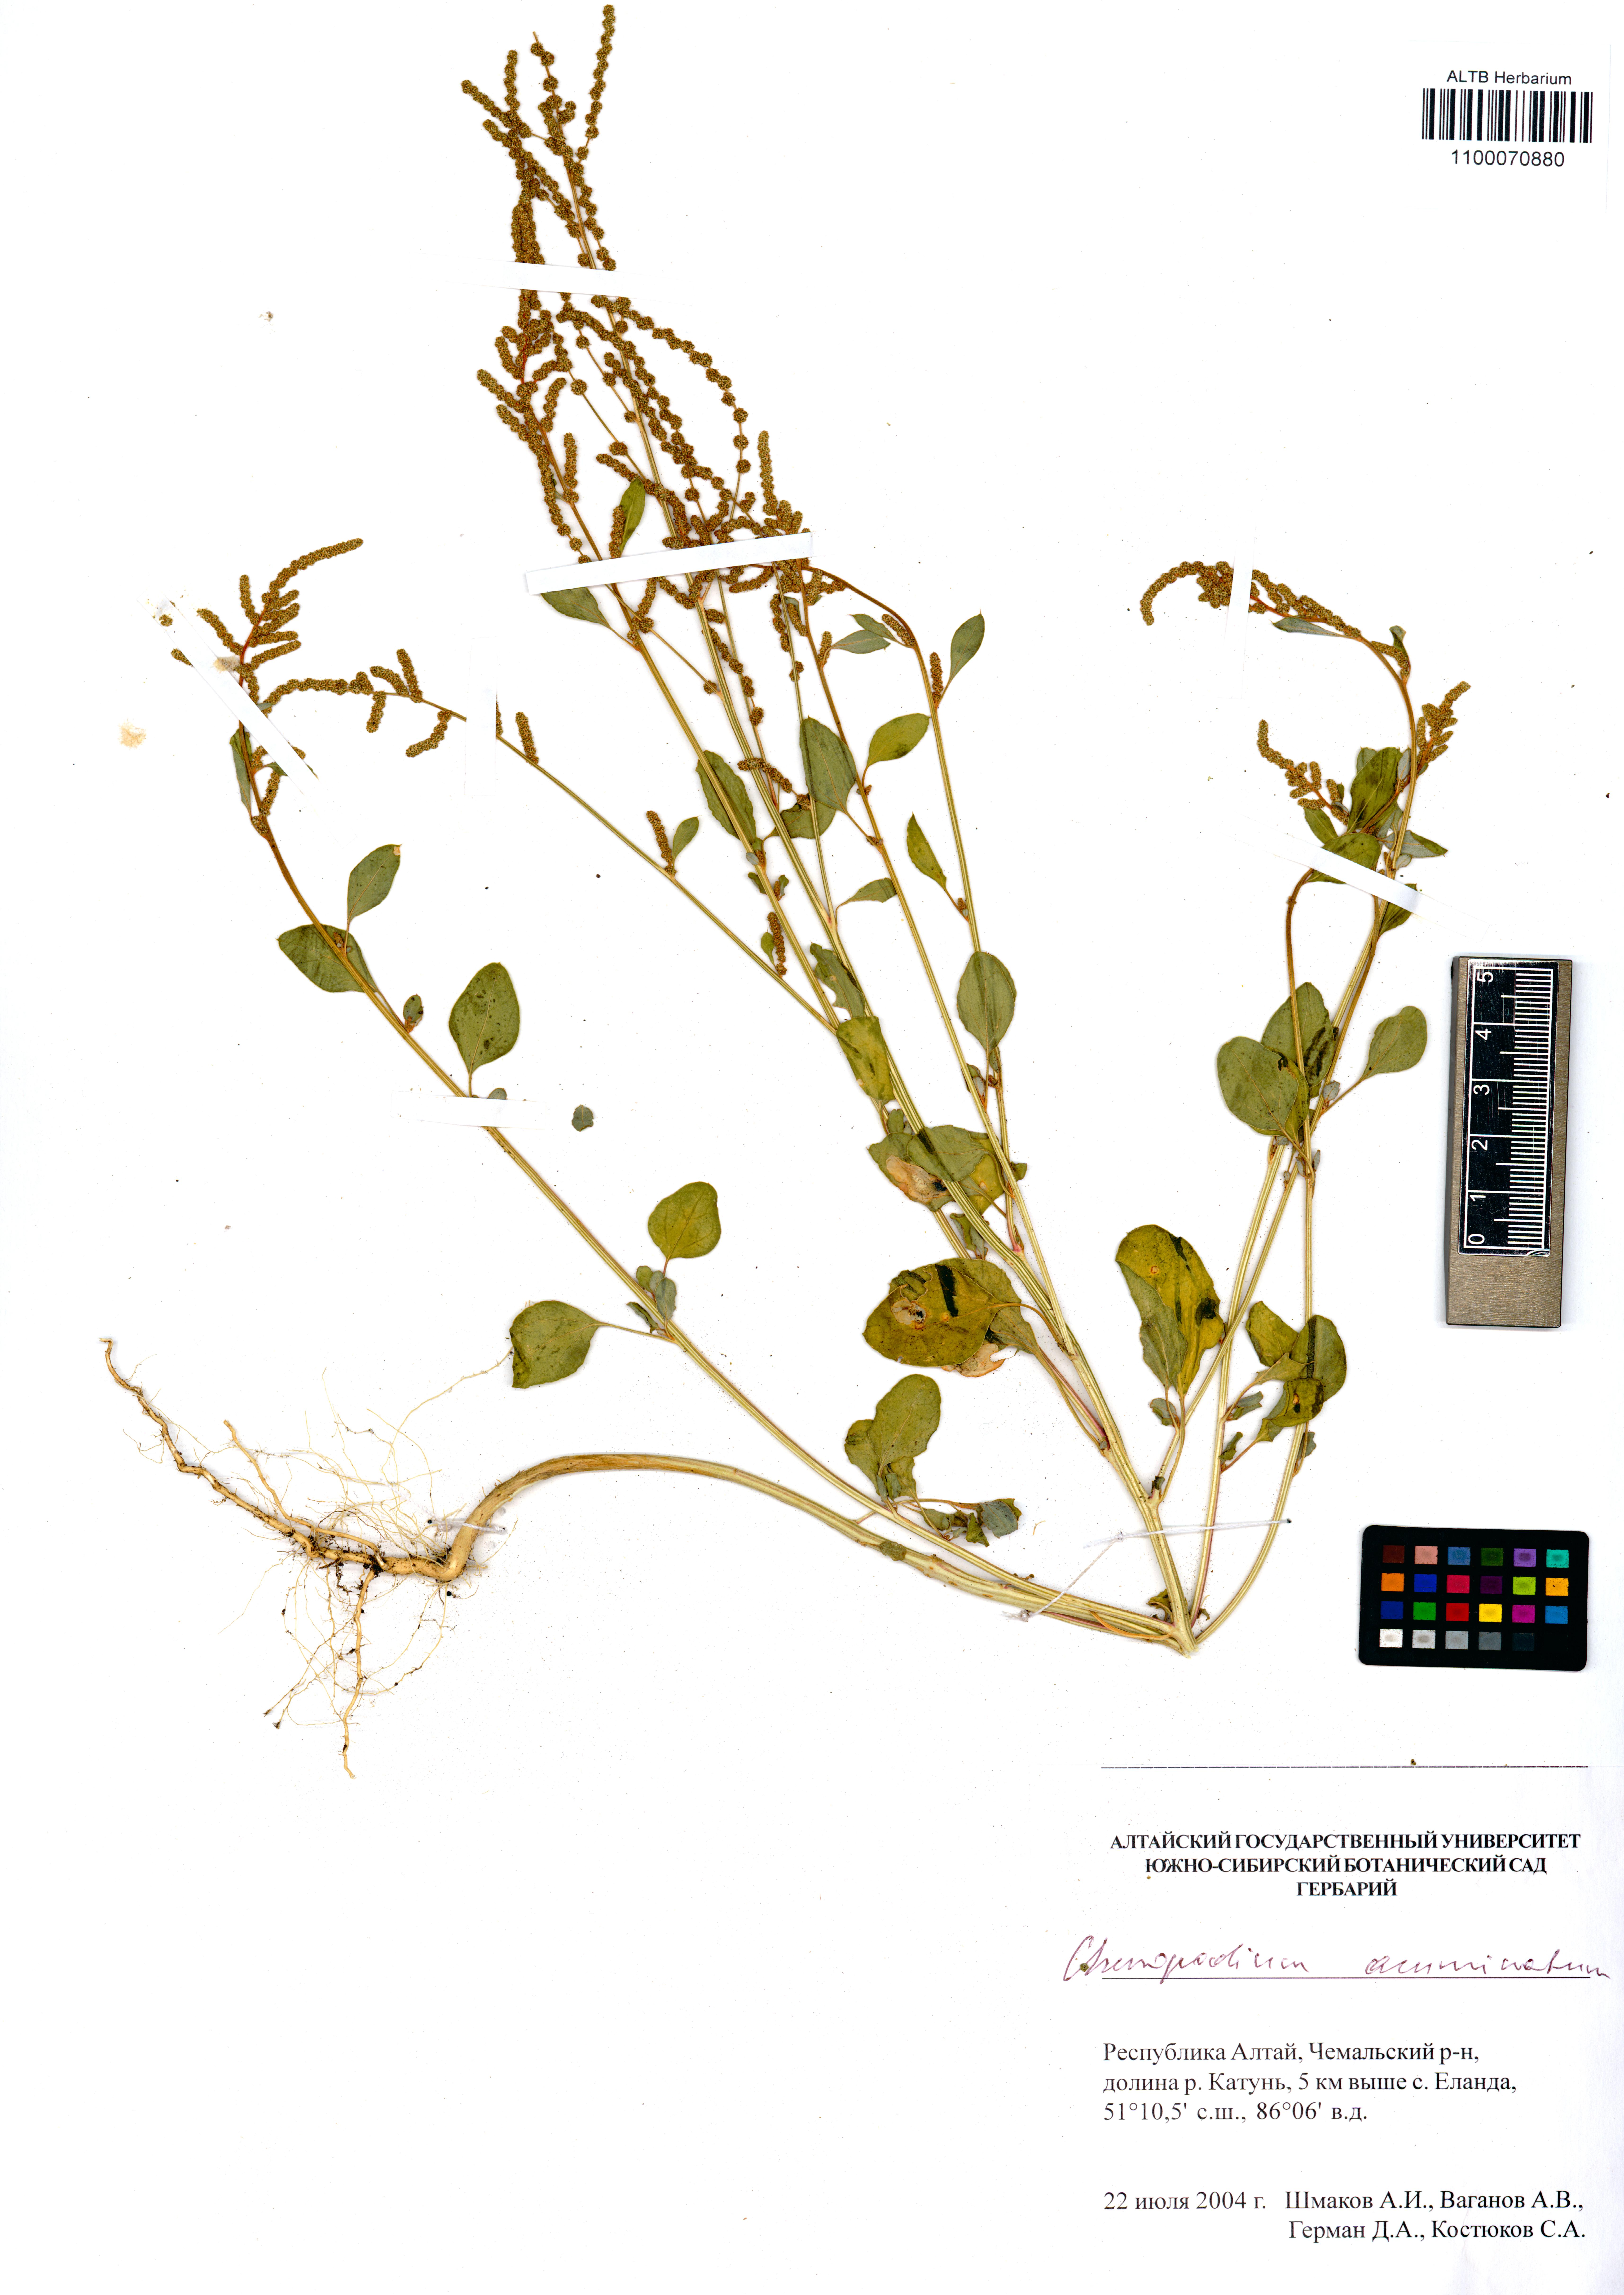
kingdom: Plantae
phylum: Tracheophyta
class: Magnoliopsida
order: Caryophyllales
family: Amaranthaceae
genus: Oxybasis
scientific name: Oxybasis rubra
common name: Red goosefoot
